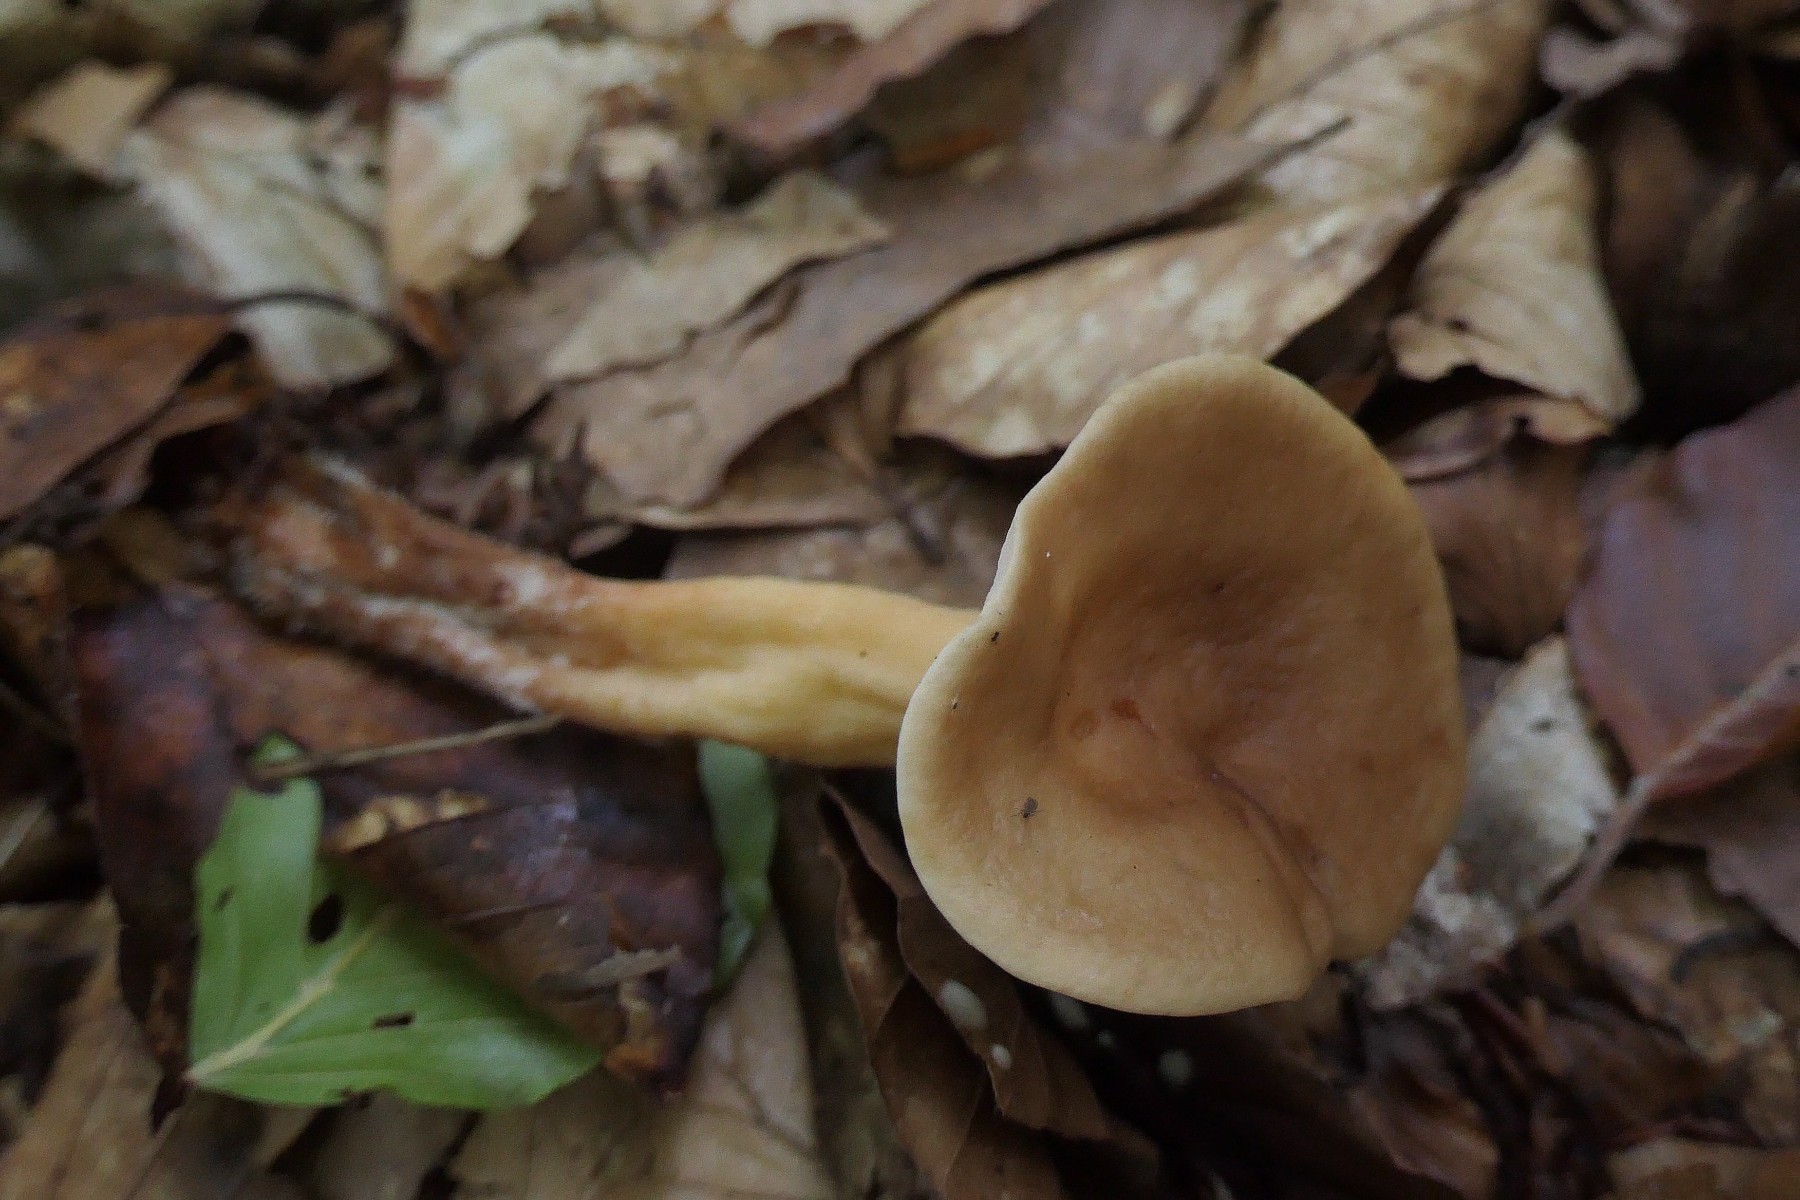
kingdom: Fungi
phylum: Basidiomycota
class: Agaricomycetes
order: Russulales
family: Russulaceae
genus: Lactarius
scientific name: Lactarius subdulcis
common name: sødlig mælkehat
